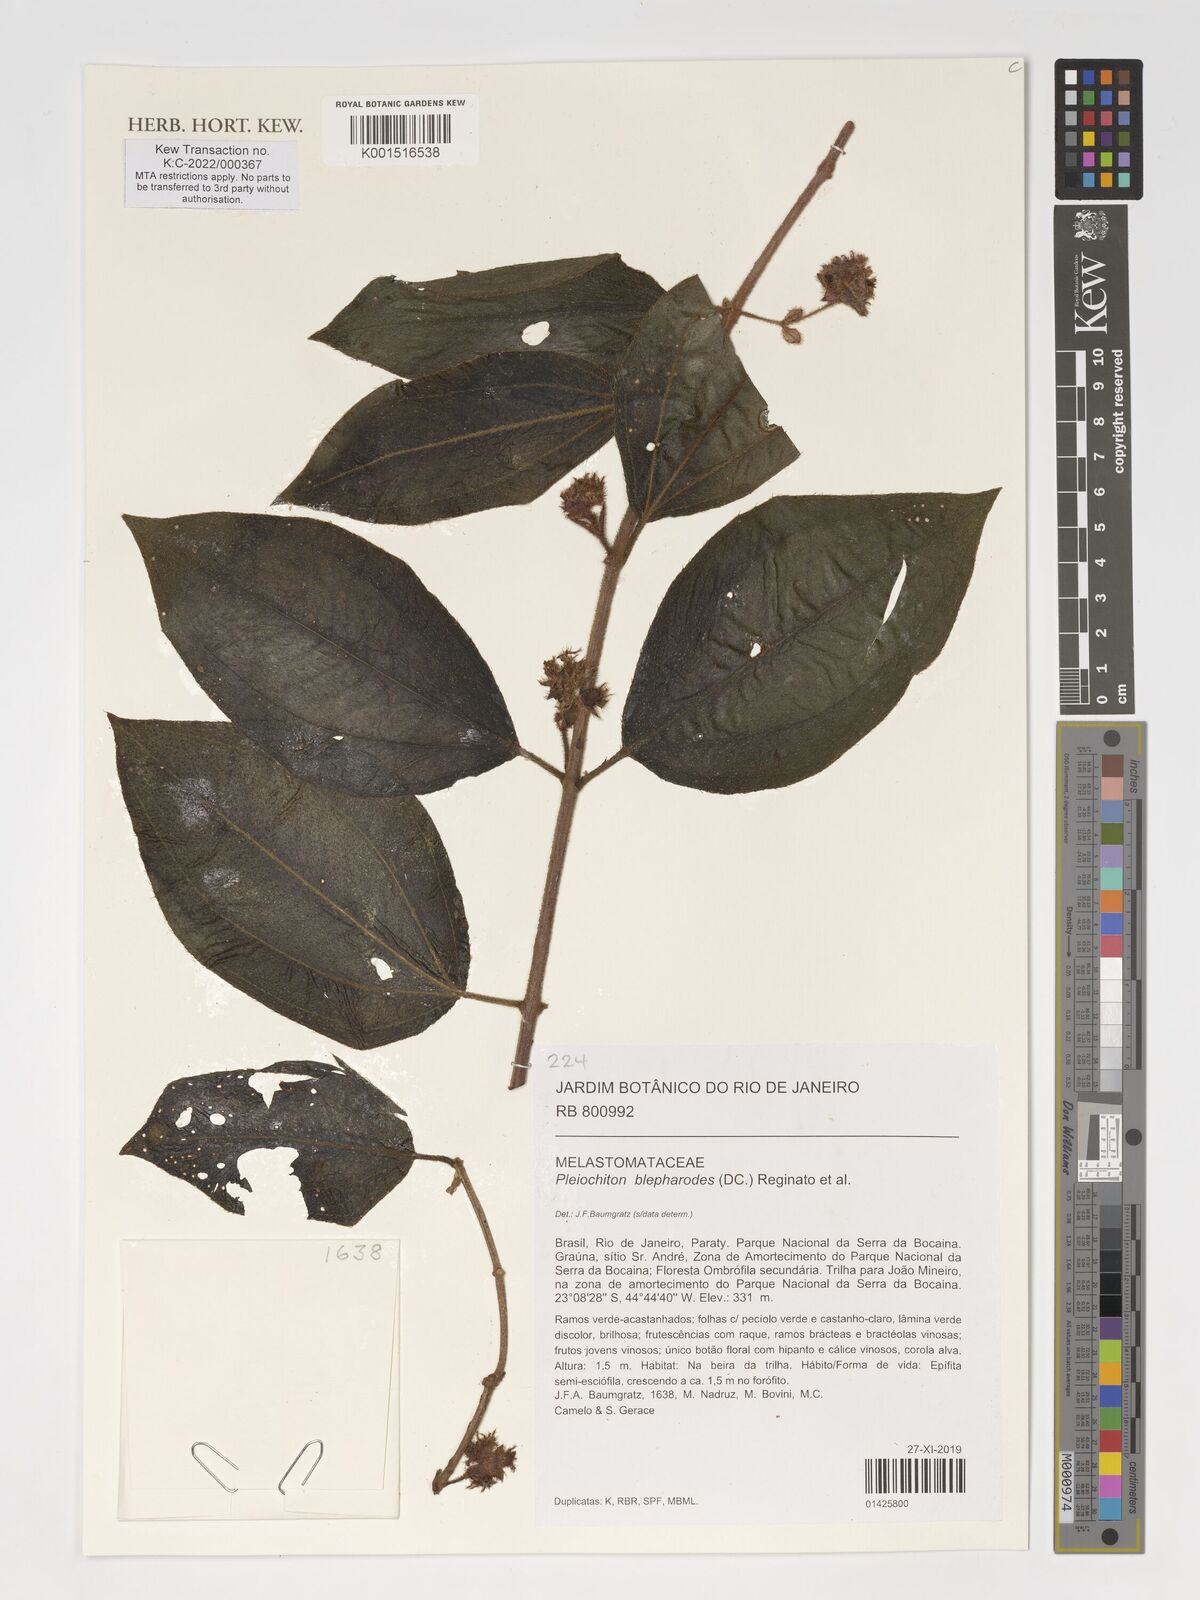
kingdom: Plantae
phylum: Tracheophyta
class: Magnoliopsida
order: Myrtales
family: Melastomataceae
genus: Miconia
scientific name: Miconia blepharodes
